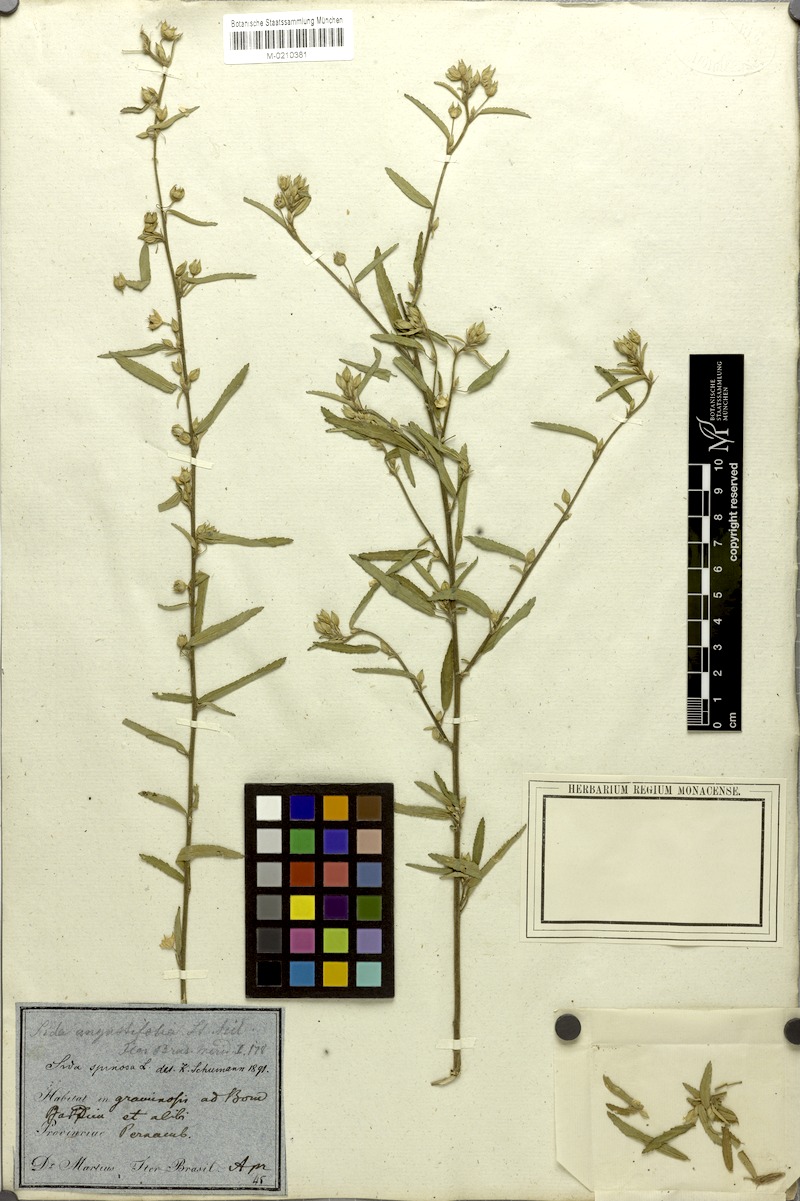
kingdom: Plantae
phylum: Tracheophyta
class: Magnoliopsida
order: Malvales
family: Malvaceae
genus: Sida
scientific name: Sida spinosa
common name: Prickly fanpetals
